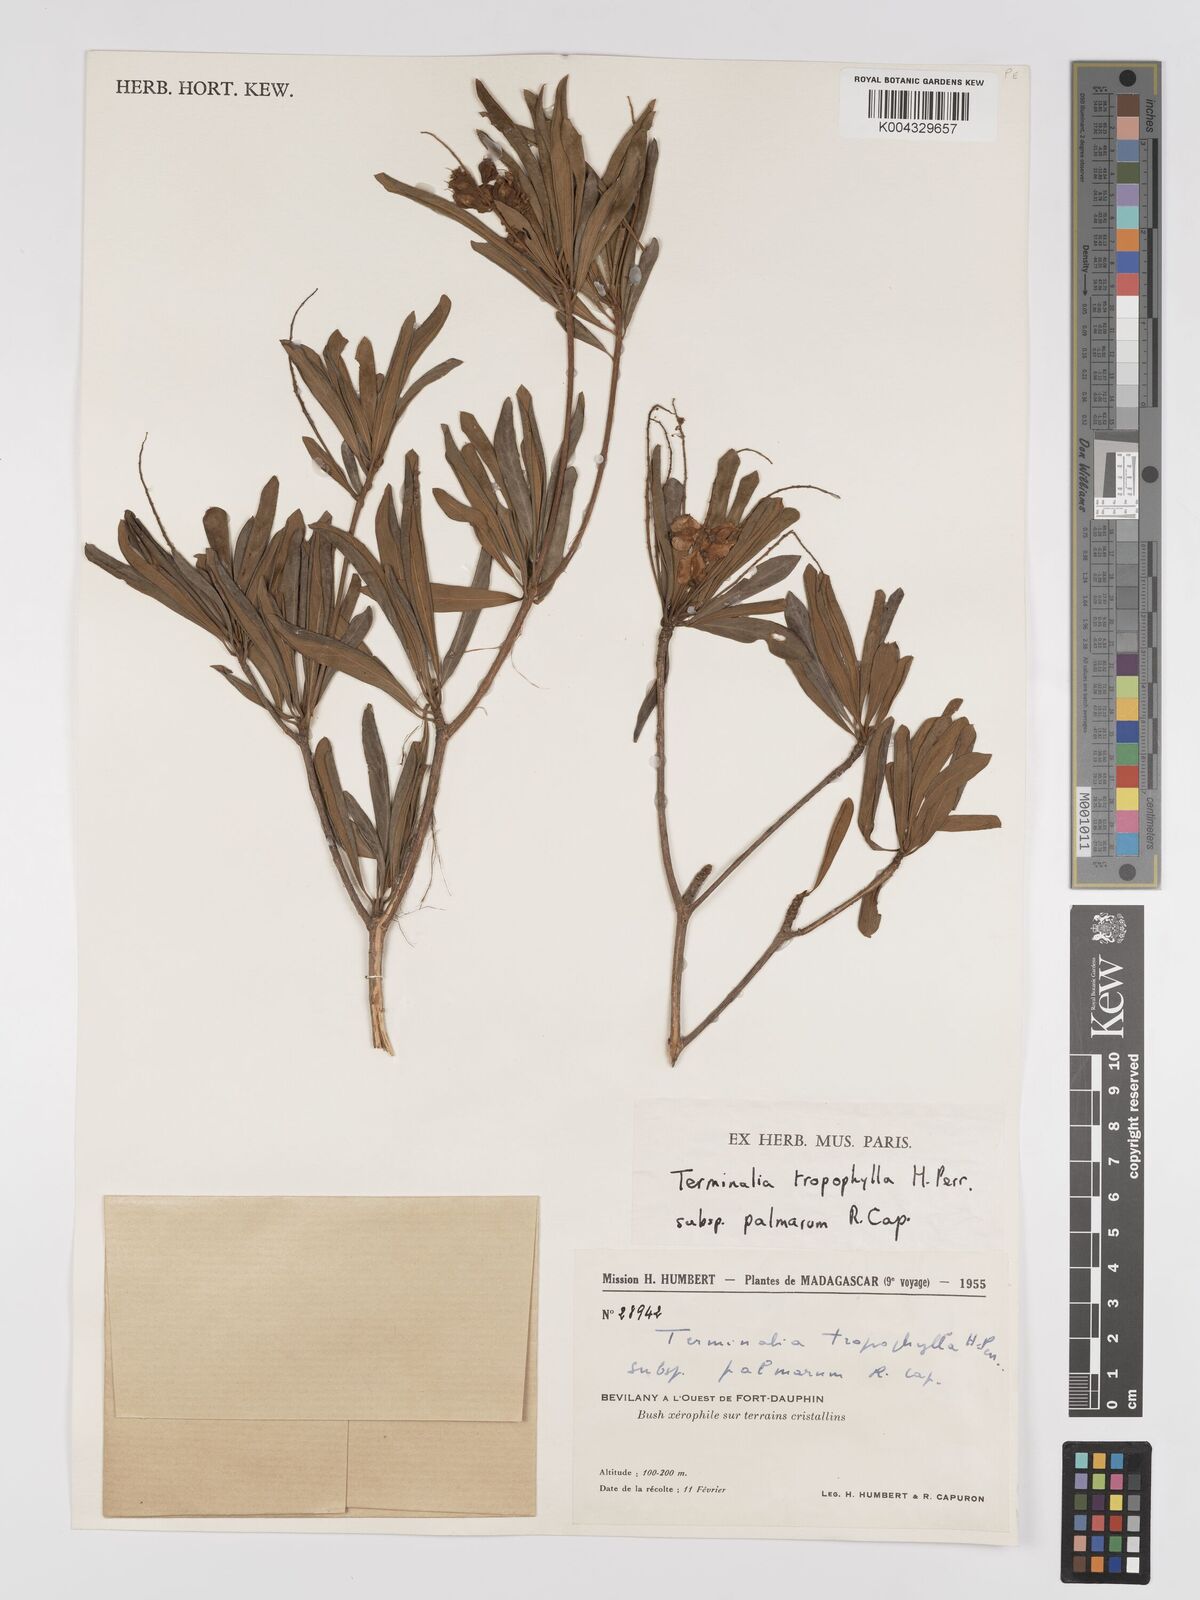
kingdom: Plantae
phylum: Tracheophyta
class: Magnoliopsida
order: Myrtales
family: Combretaceae
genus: Terminalia
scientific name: Terminalia tropophylla
